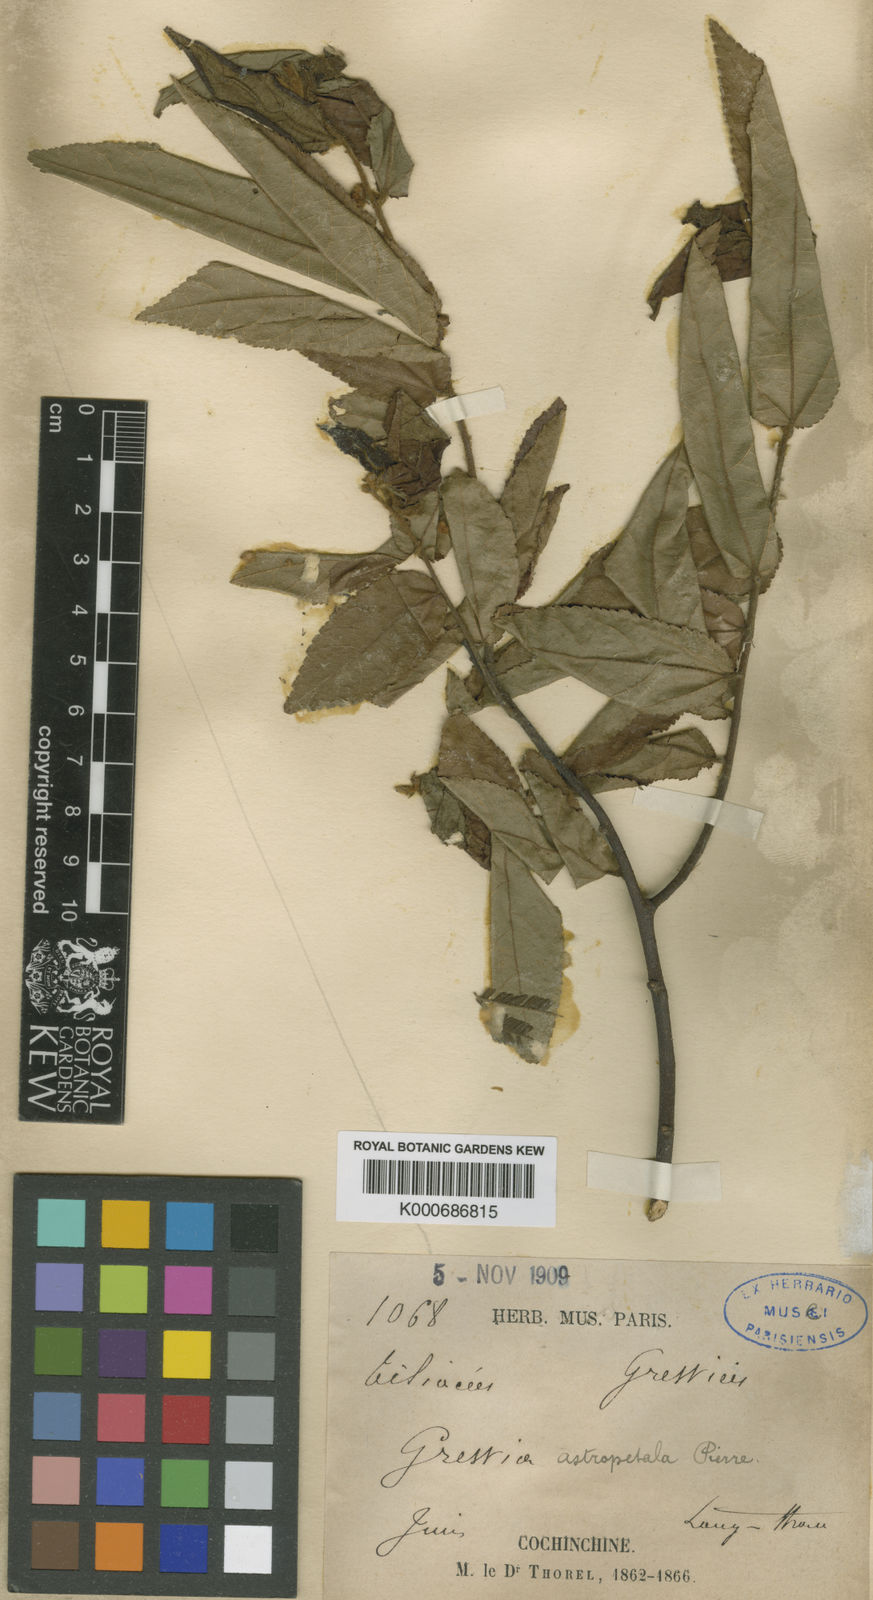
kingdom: Plantae
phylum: Tracheophyta
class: Magnoliopsida
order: Malvales
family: Malvaceae
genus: Grewia
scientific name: Grewia astropetala
